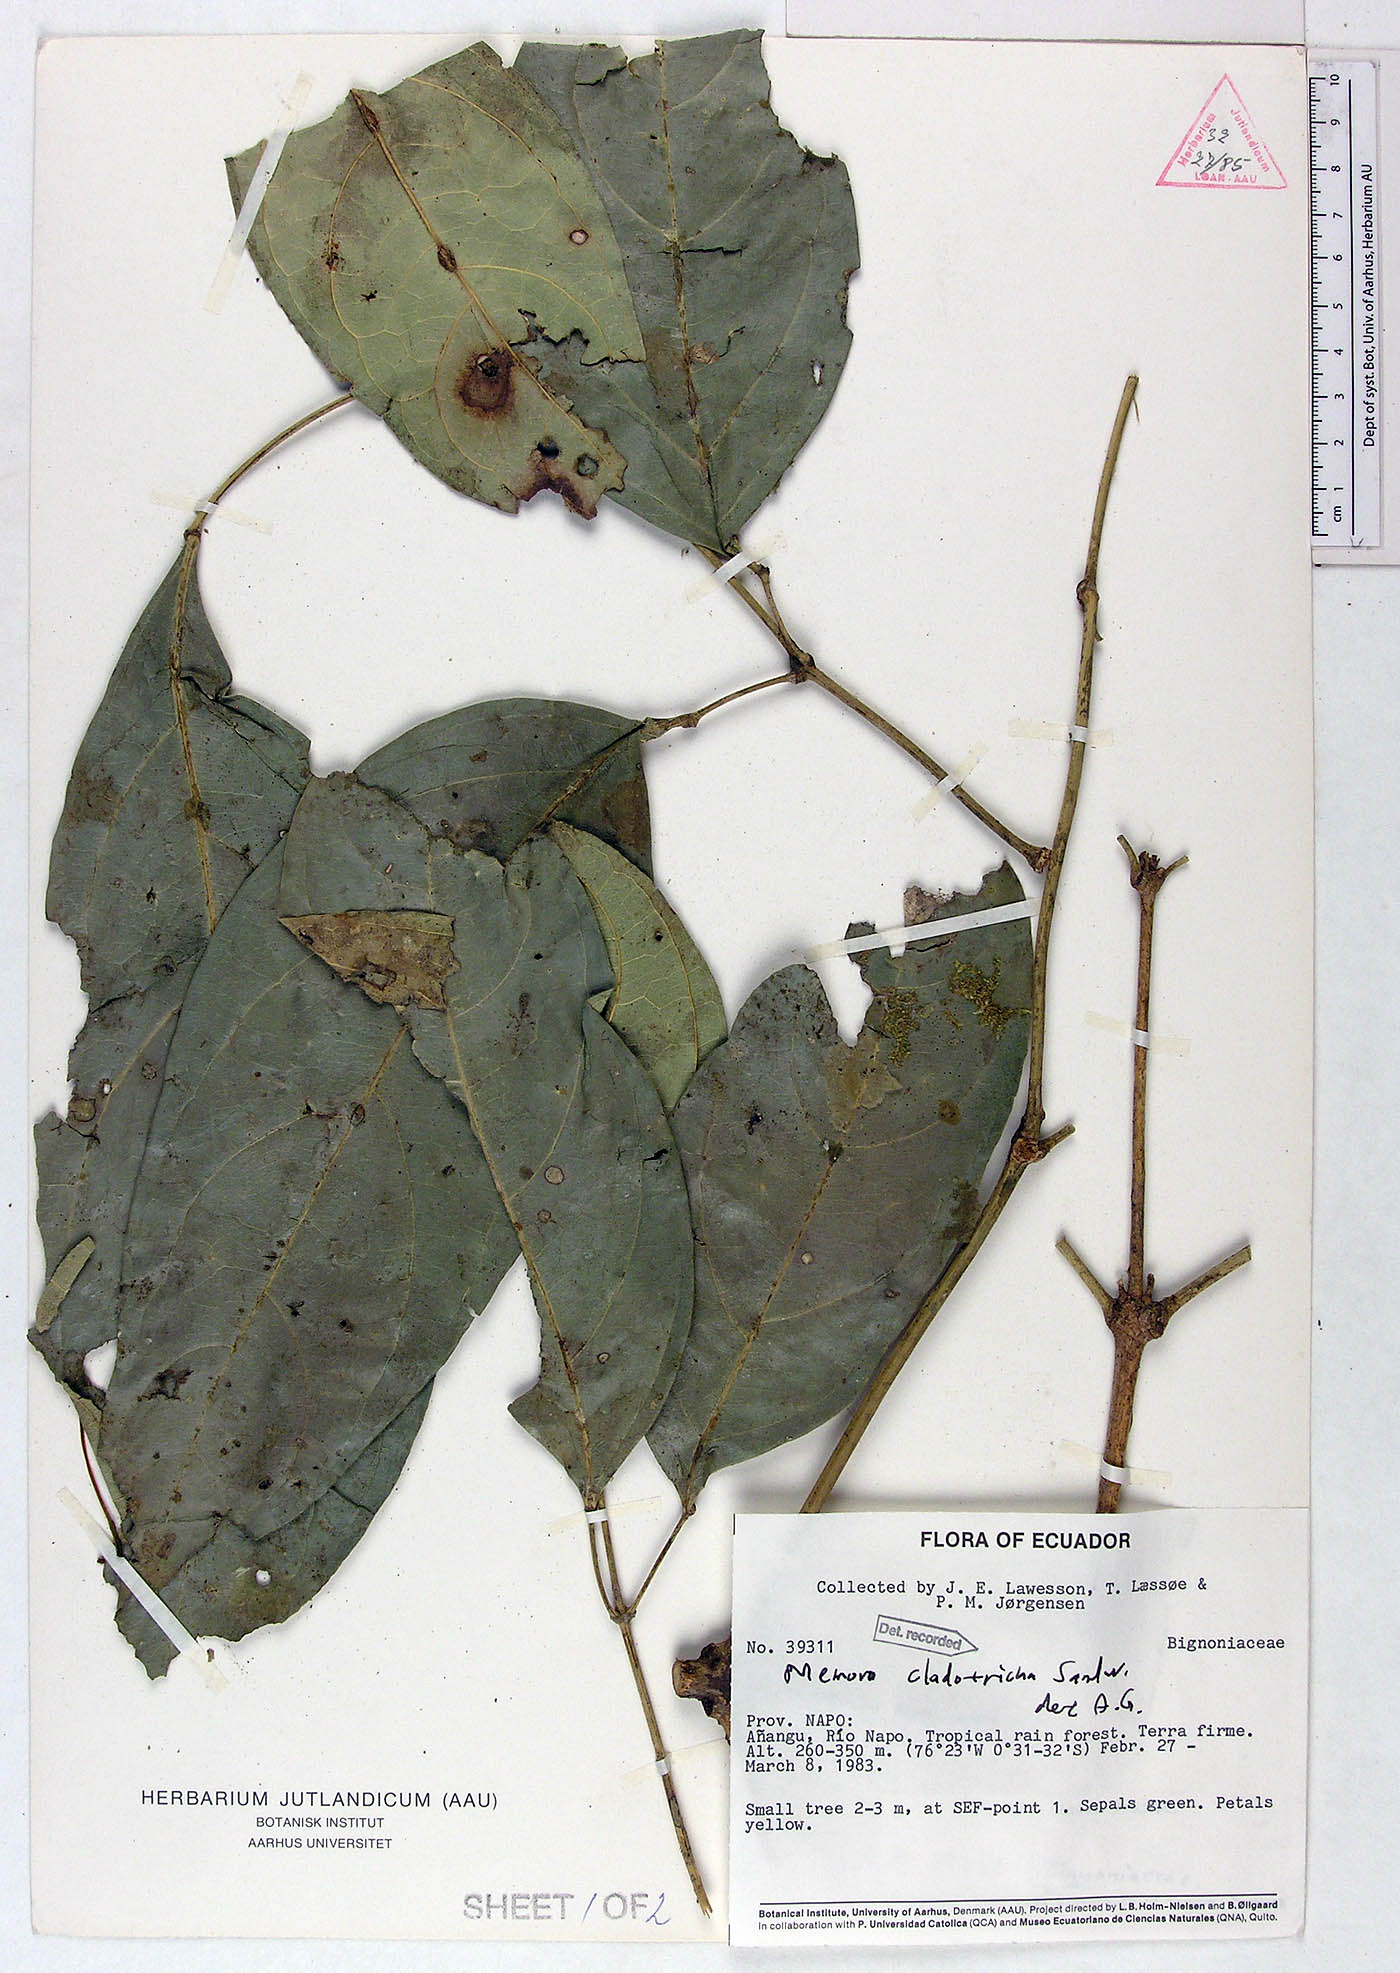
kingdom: Plantae
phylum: Tracheophyta
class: Magnoliopsida
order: Lamiales
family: Bignoniaceae
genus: Adenocalymma
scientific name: Adenocalymma cladotrichum
